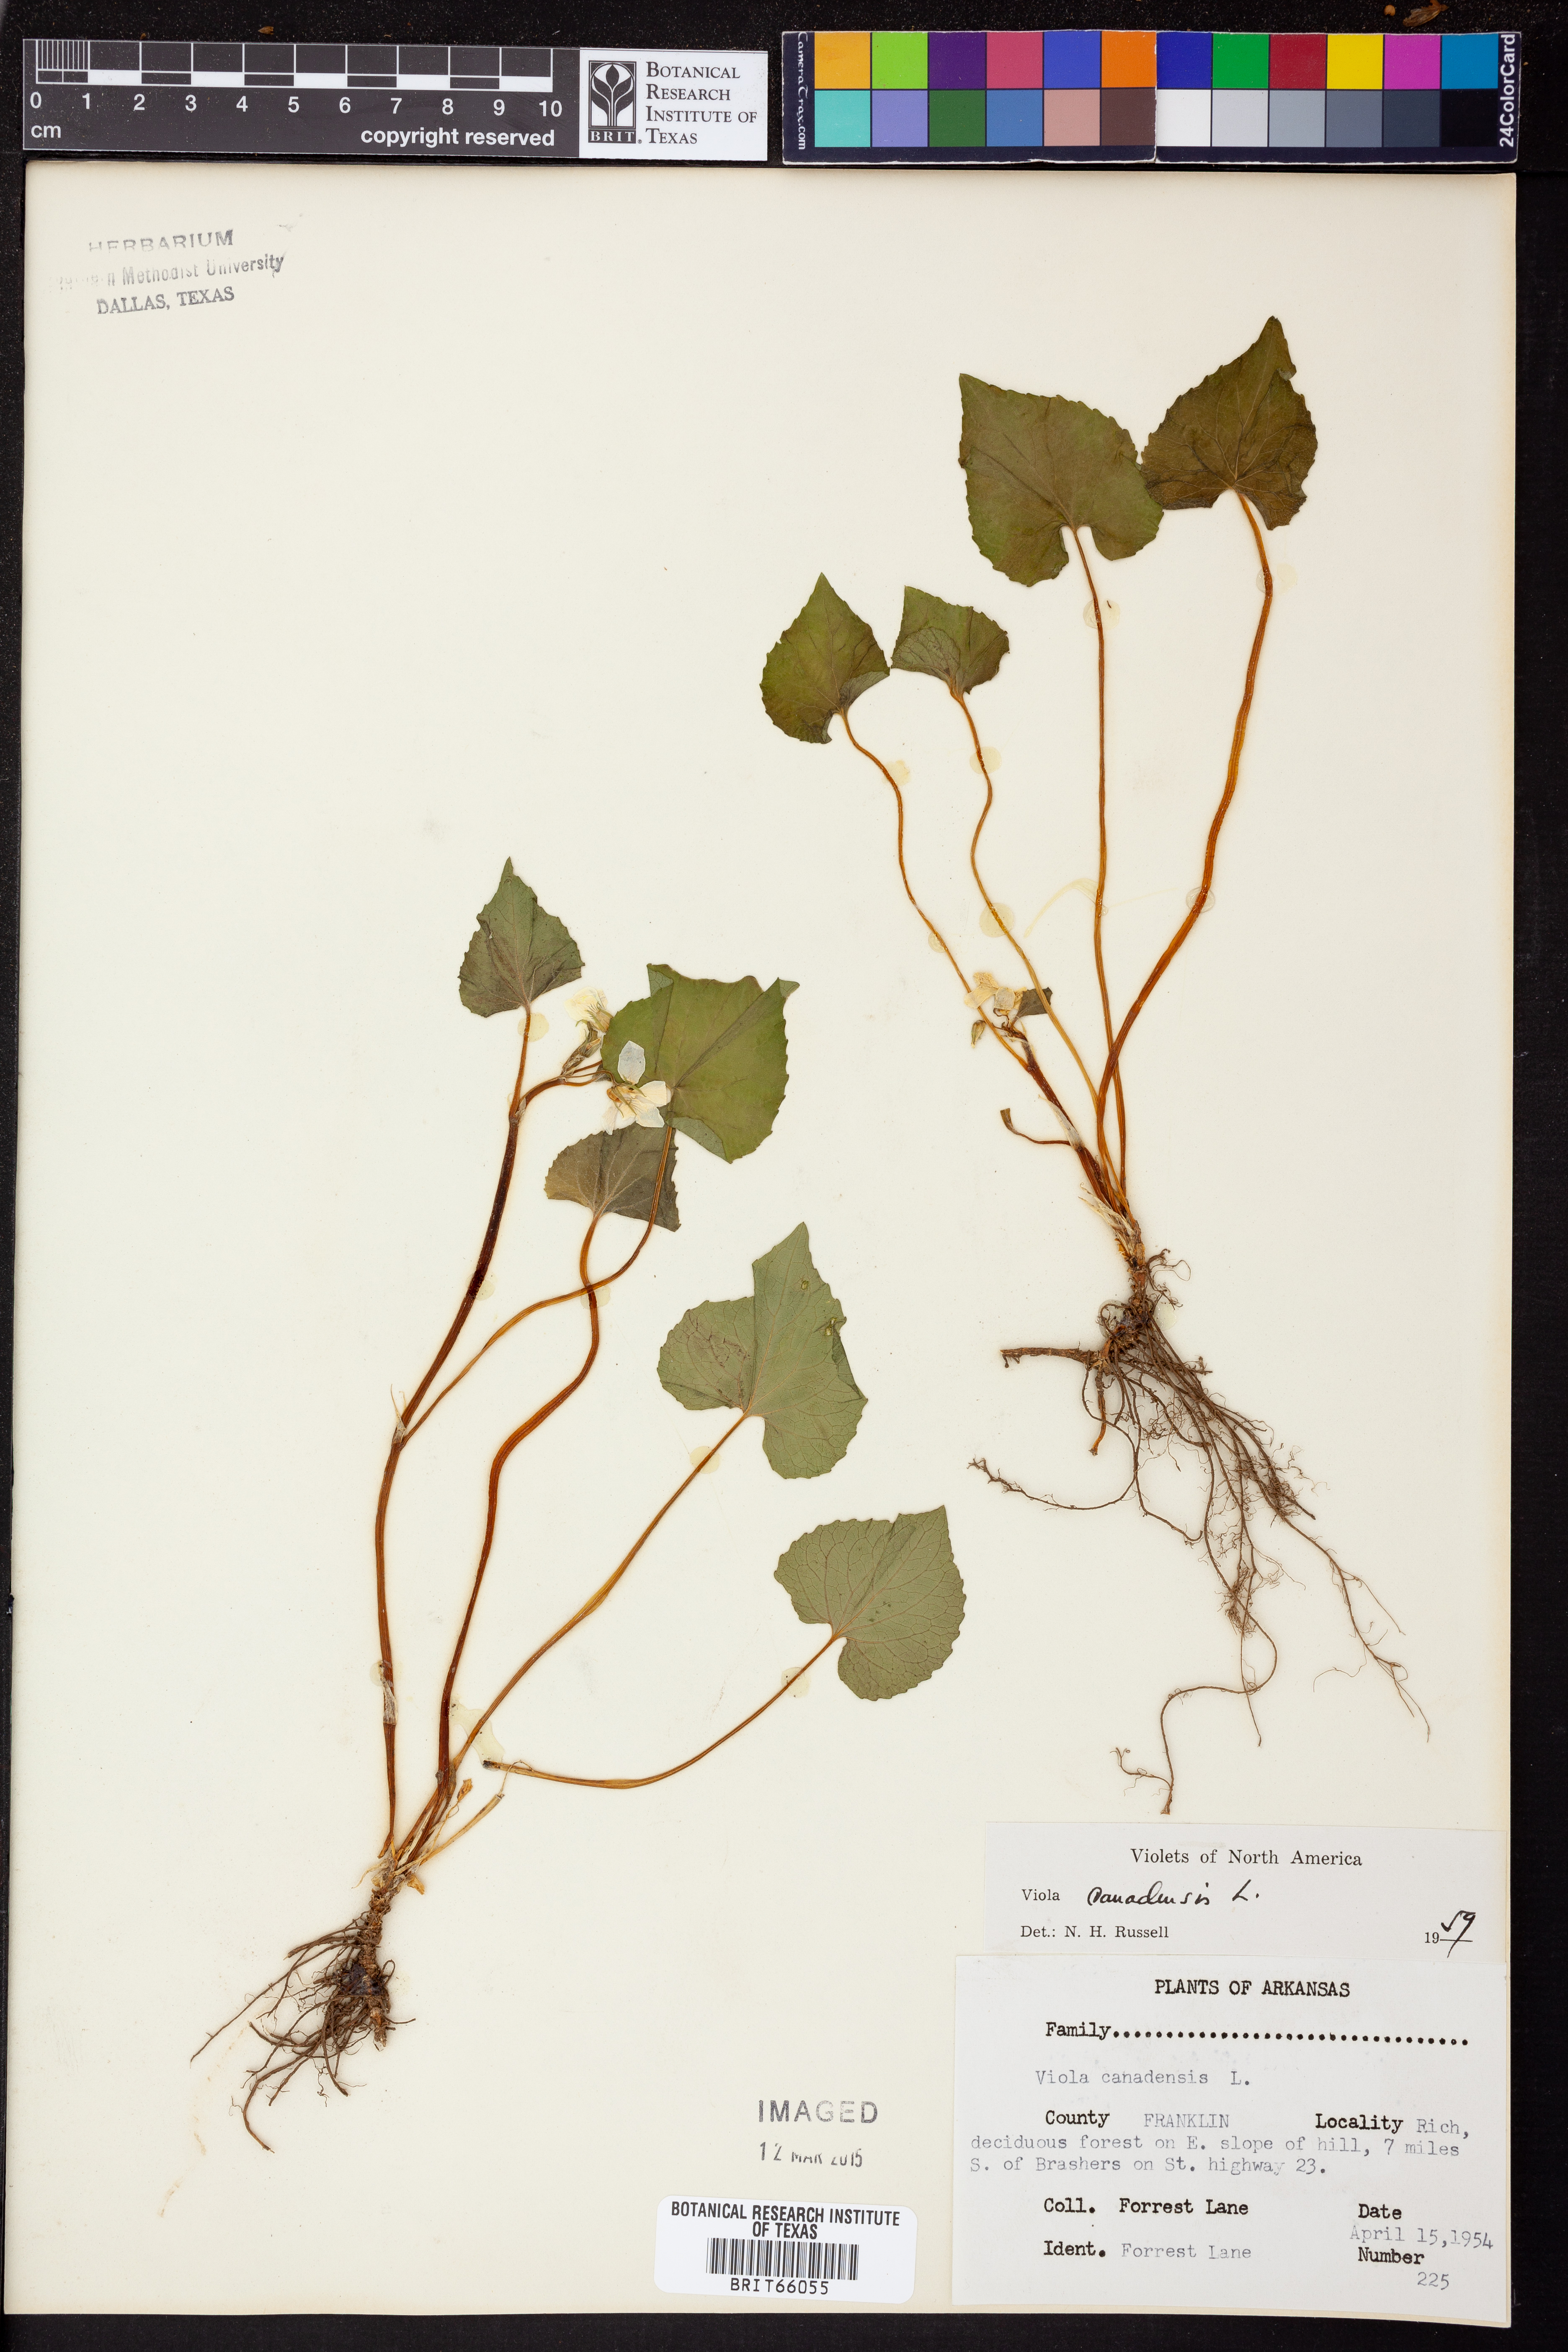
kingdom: Plantae
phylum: Tracheophyta
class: Magnoliopsida
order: Malpighiales
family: Violaceae
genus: Viola
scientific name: Viola canadensis
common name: Canada violet
